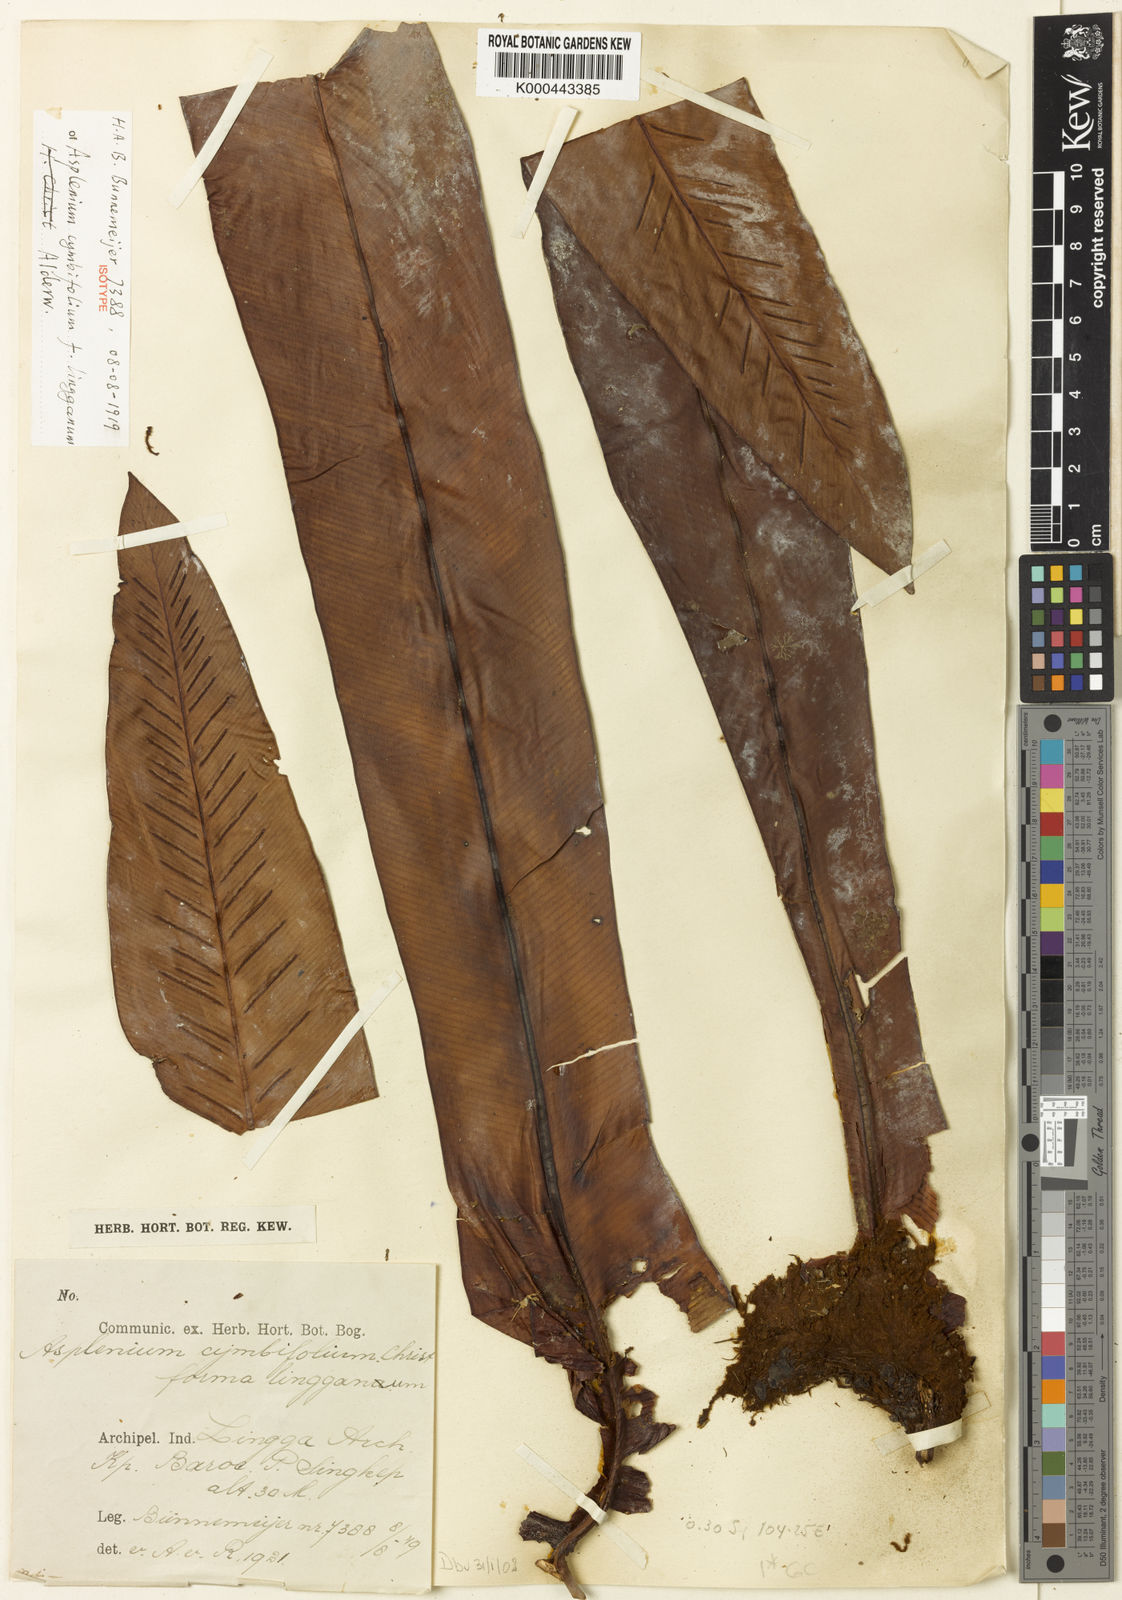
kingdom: Plantae
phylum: Tracheophyta
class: Polypodiopsida
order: Polypodiales
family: Aspleniaceae
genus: Asplenium
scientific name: Asplenium cymbifolium
